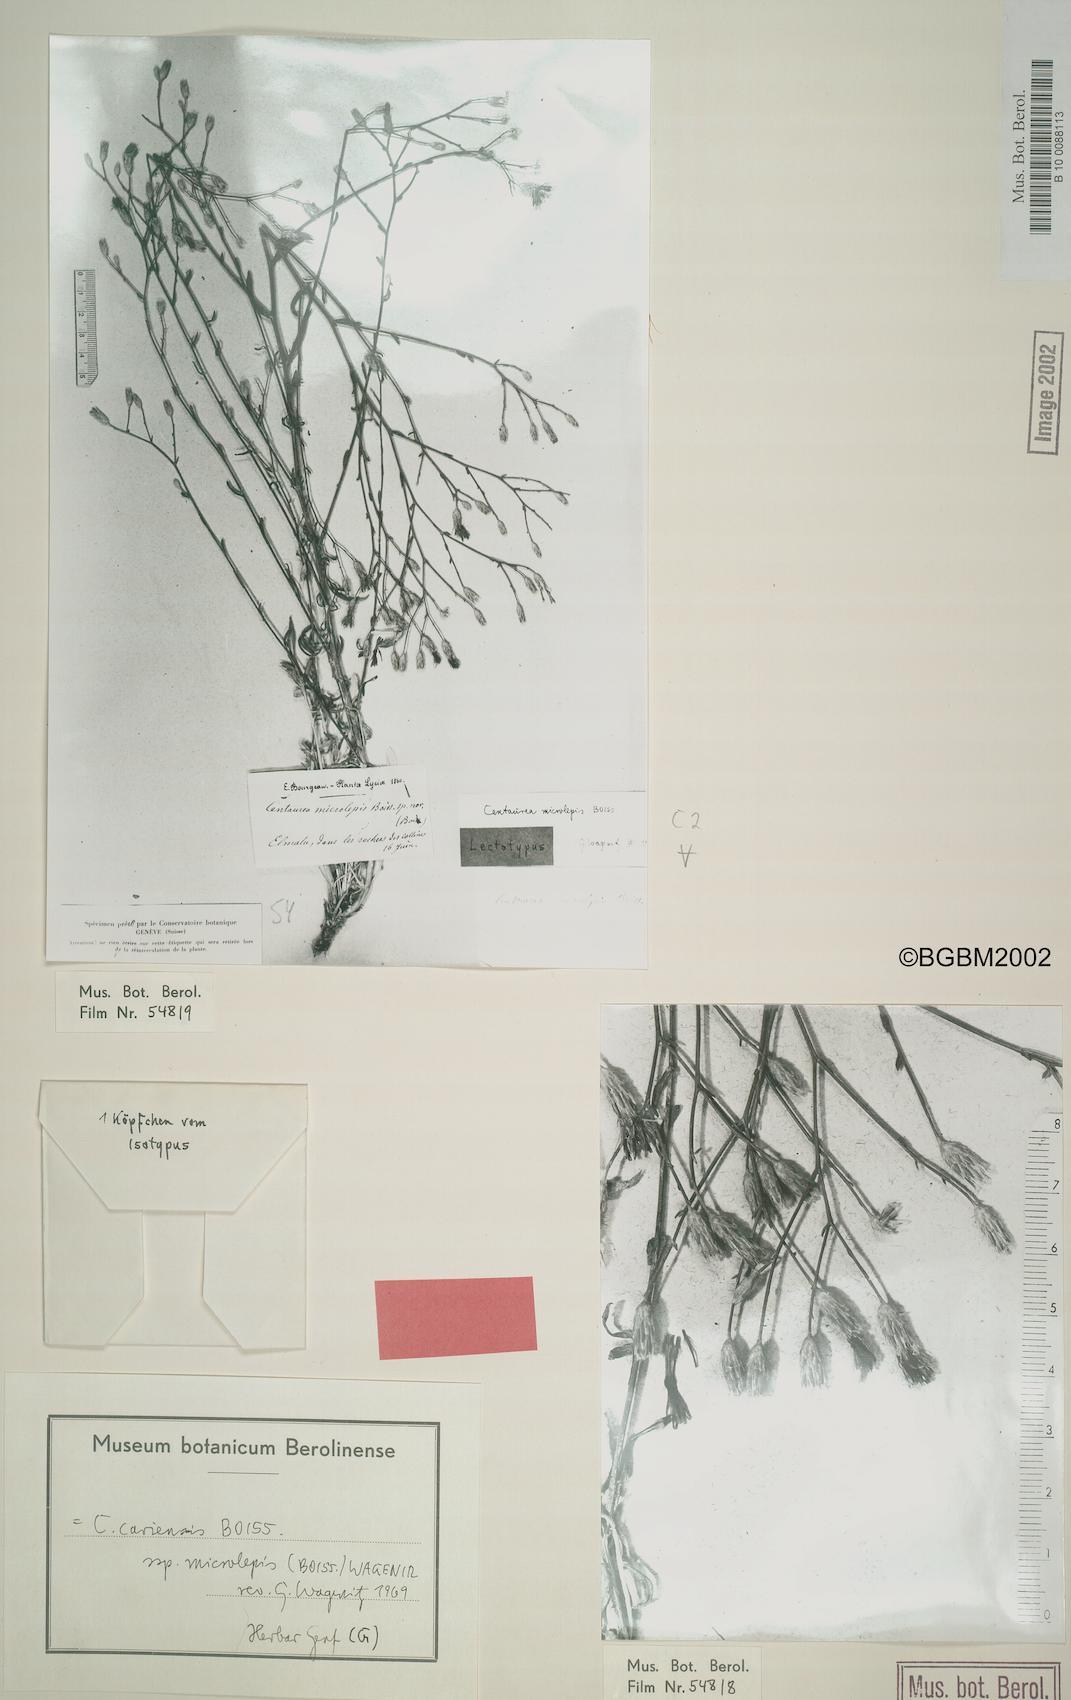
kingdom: Plantae
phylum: Tracheophyta
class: Magnoliopsida
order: Asterales
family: Asteraceae
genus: Centaurea
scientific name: Centaurea cariensis
